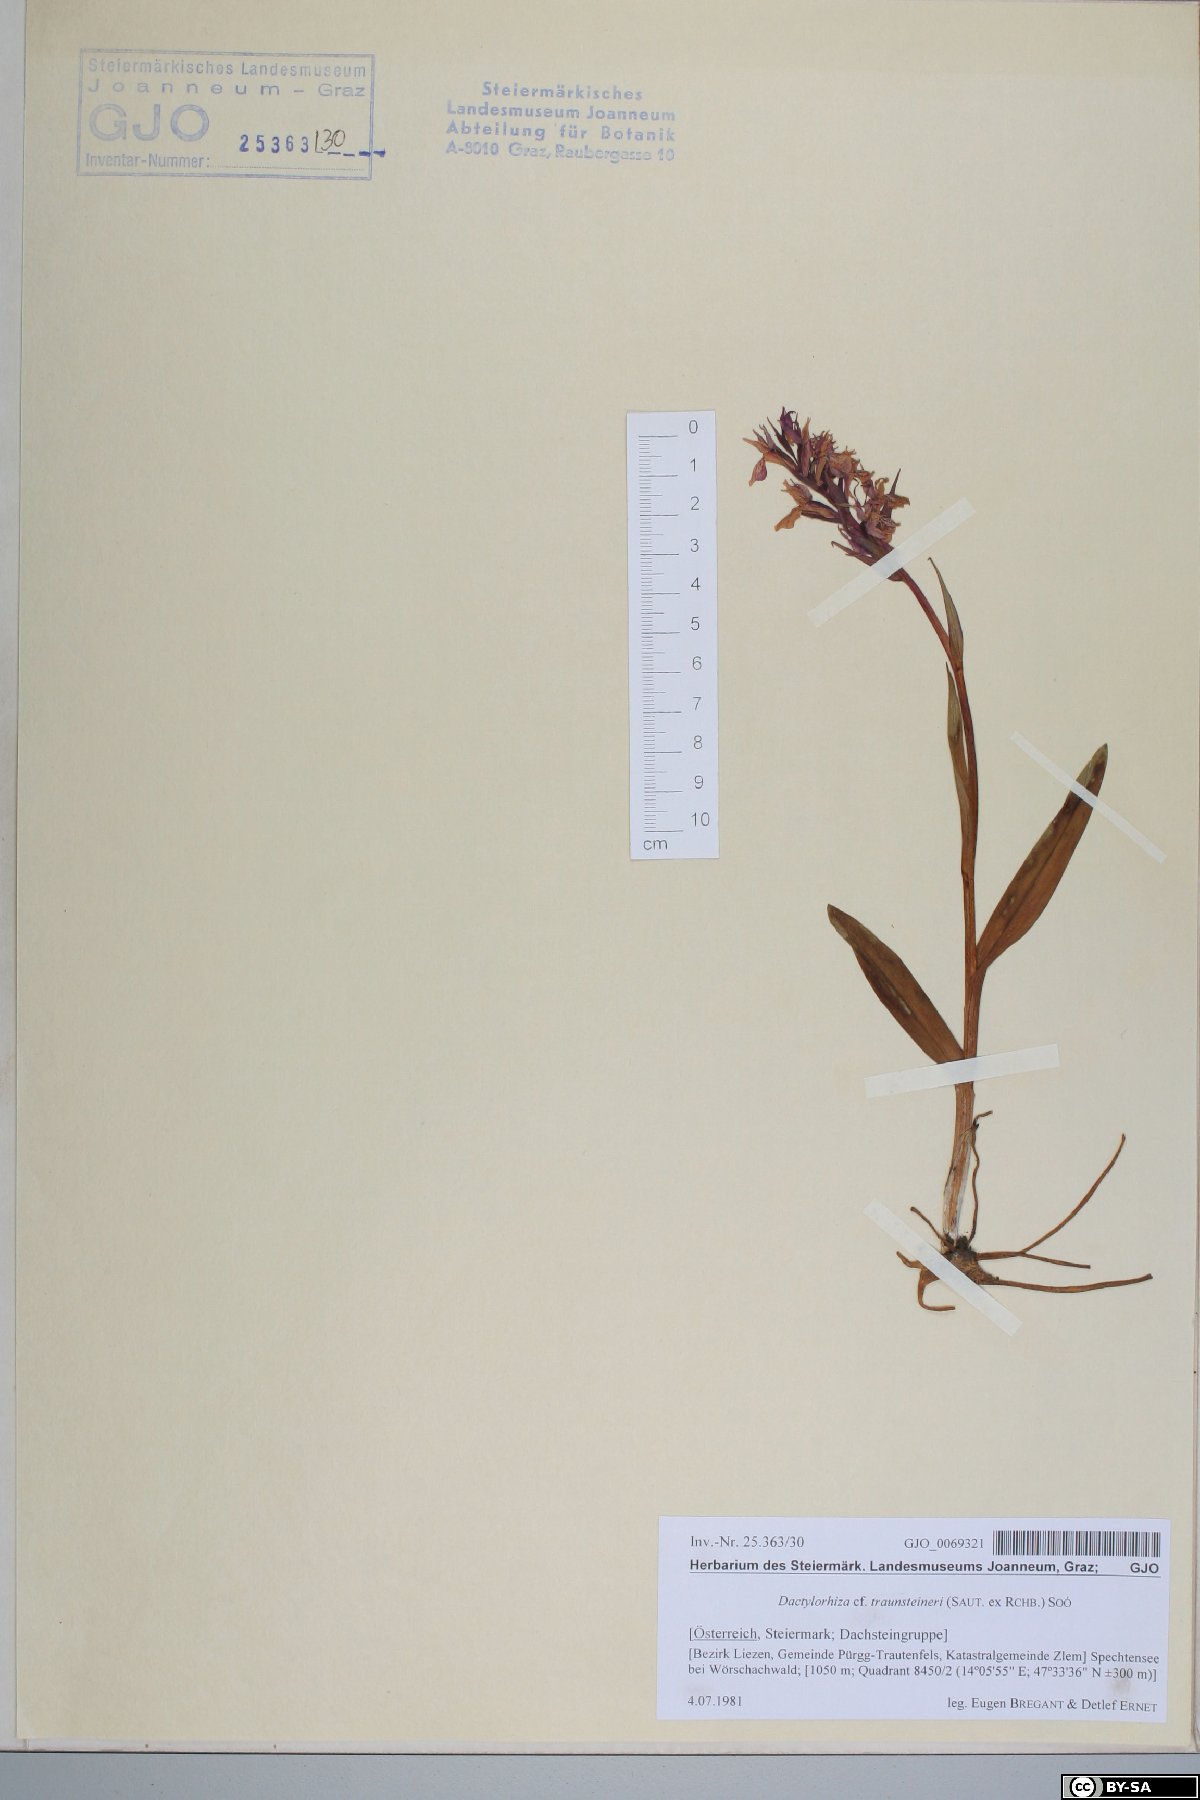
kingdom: Plantae
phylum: Tracheophyta
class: Liliopsida
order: Asparagales
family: Orchidaceae
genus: Dactylorhiza
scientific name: Dactylorhiza majalis
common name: Marsh orchid
